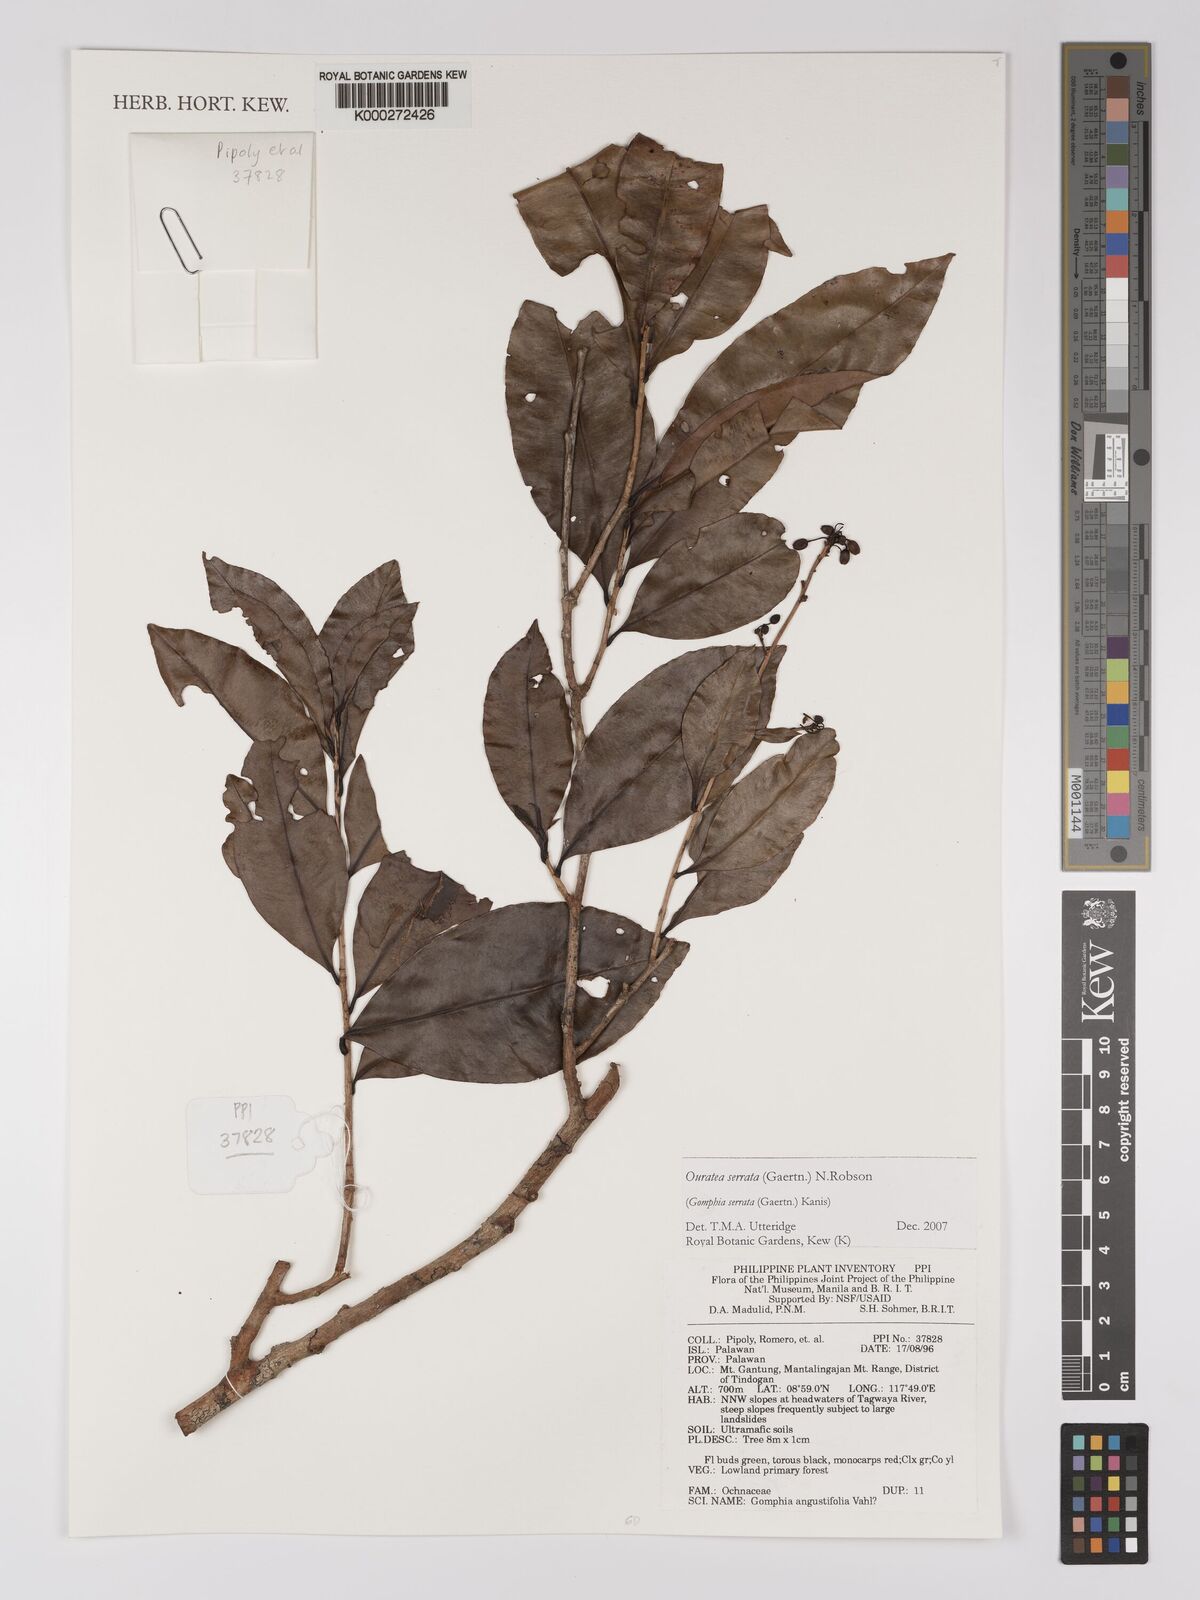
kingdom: Plantae
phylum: Tracheophyta
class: Magnoliopsida
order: Malpighiales
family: Ochnaceae
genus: Gomphia
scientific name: Gomphia serrata
